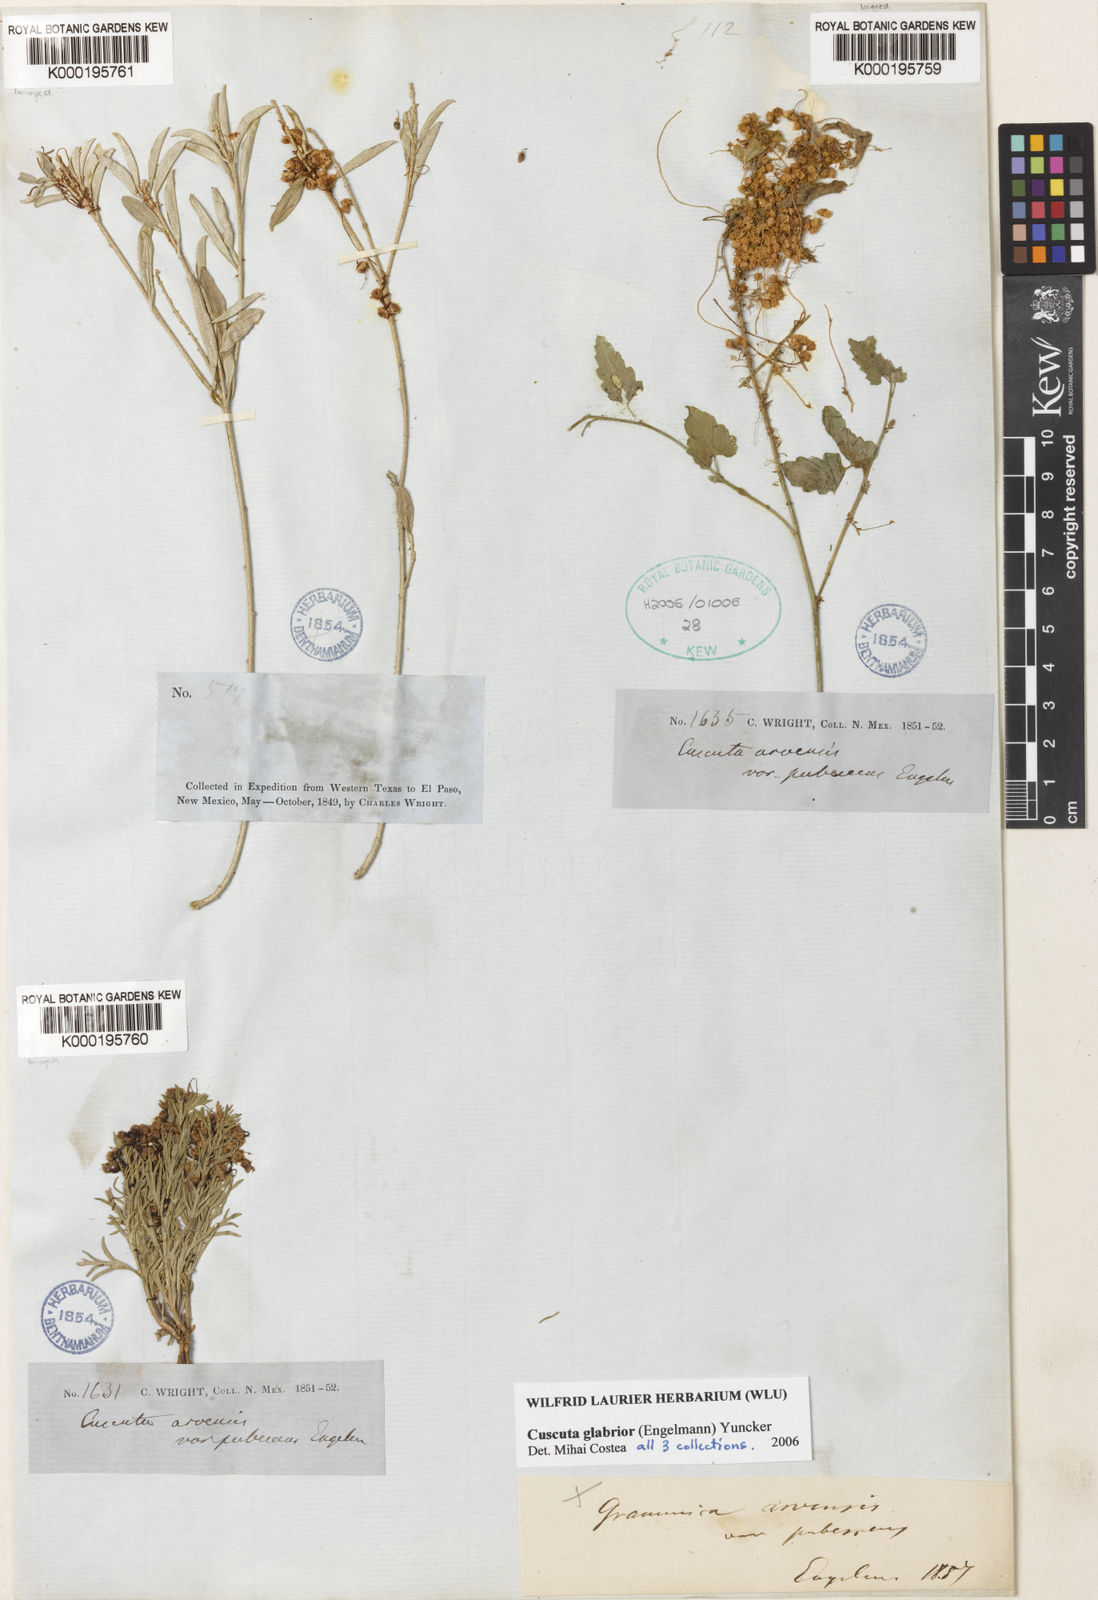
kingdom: Plantae
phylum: Tracheophyta
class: Magnoliopsida
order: Solanales
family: Convolvulaceae
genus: Cuscuta
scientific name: Cuscuta pentagona
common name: Fiveangled dodder
